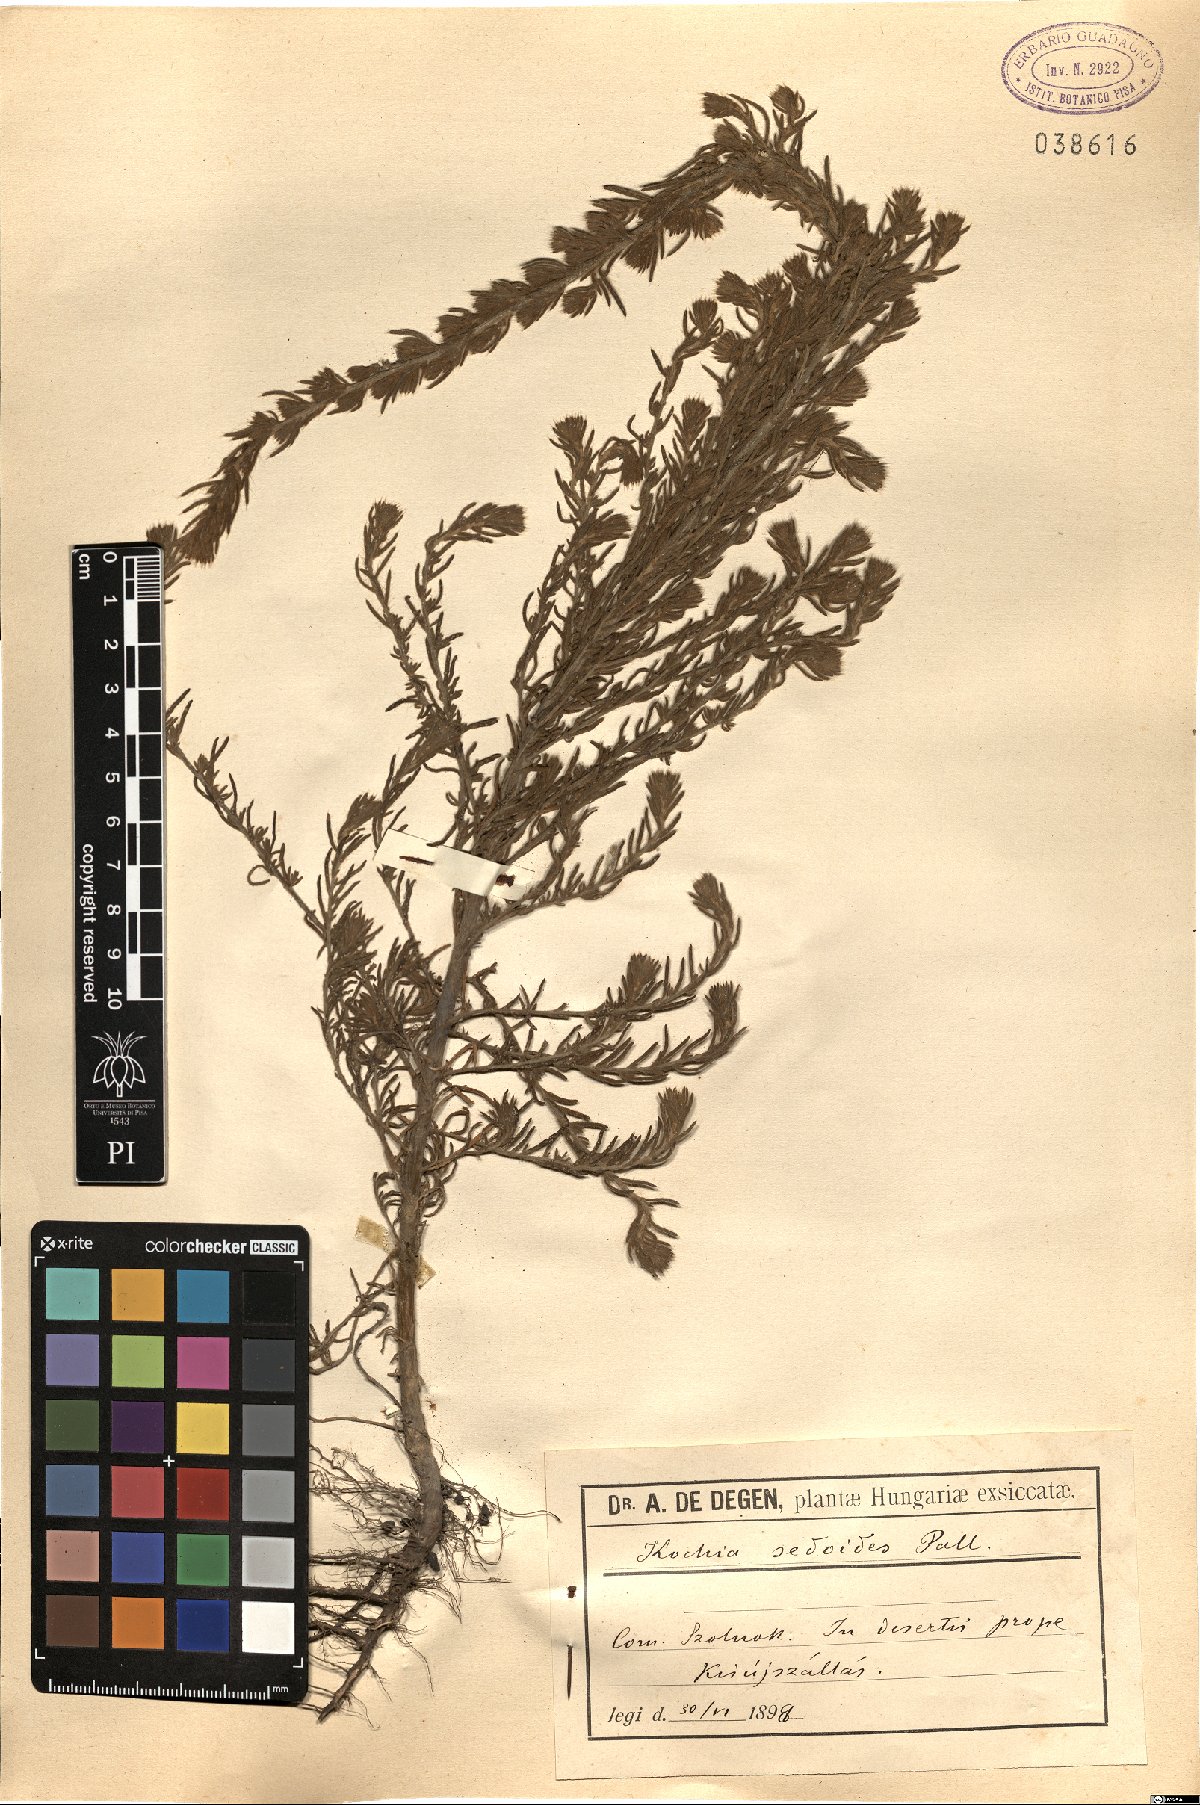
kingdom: Plantae
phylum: Tracheophyta
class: Magnoliopsida
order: Caryophyllales
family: Amaranthaceae
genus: Suaeda
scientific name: Suaeda maritima
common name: Annual sea-blite
